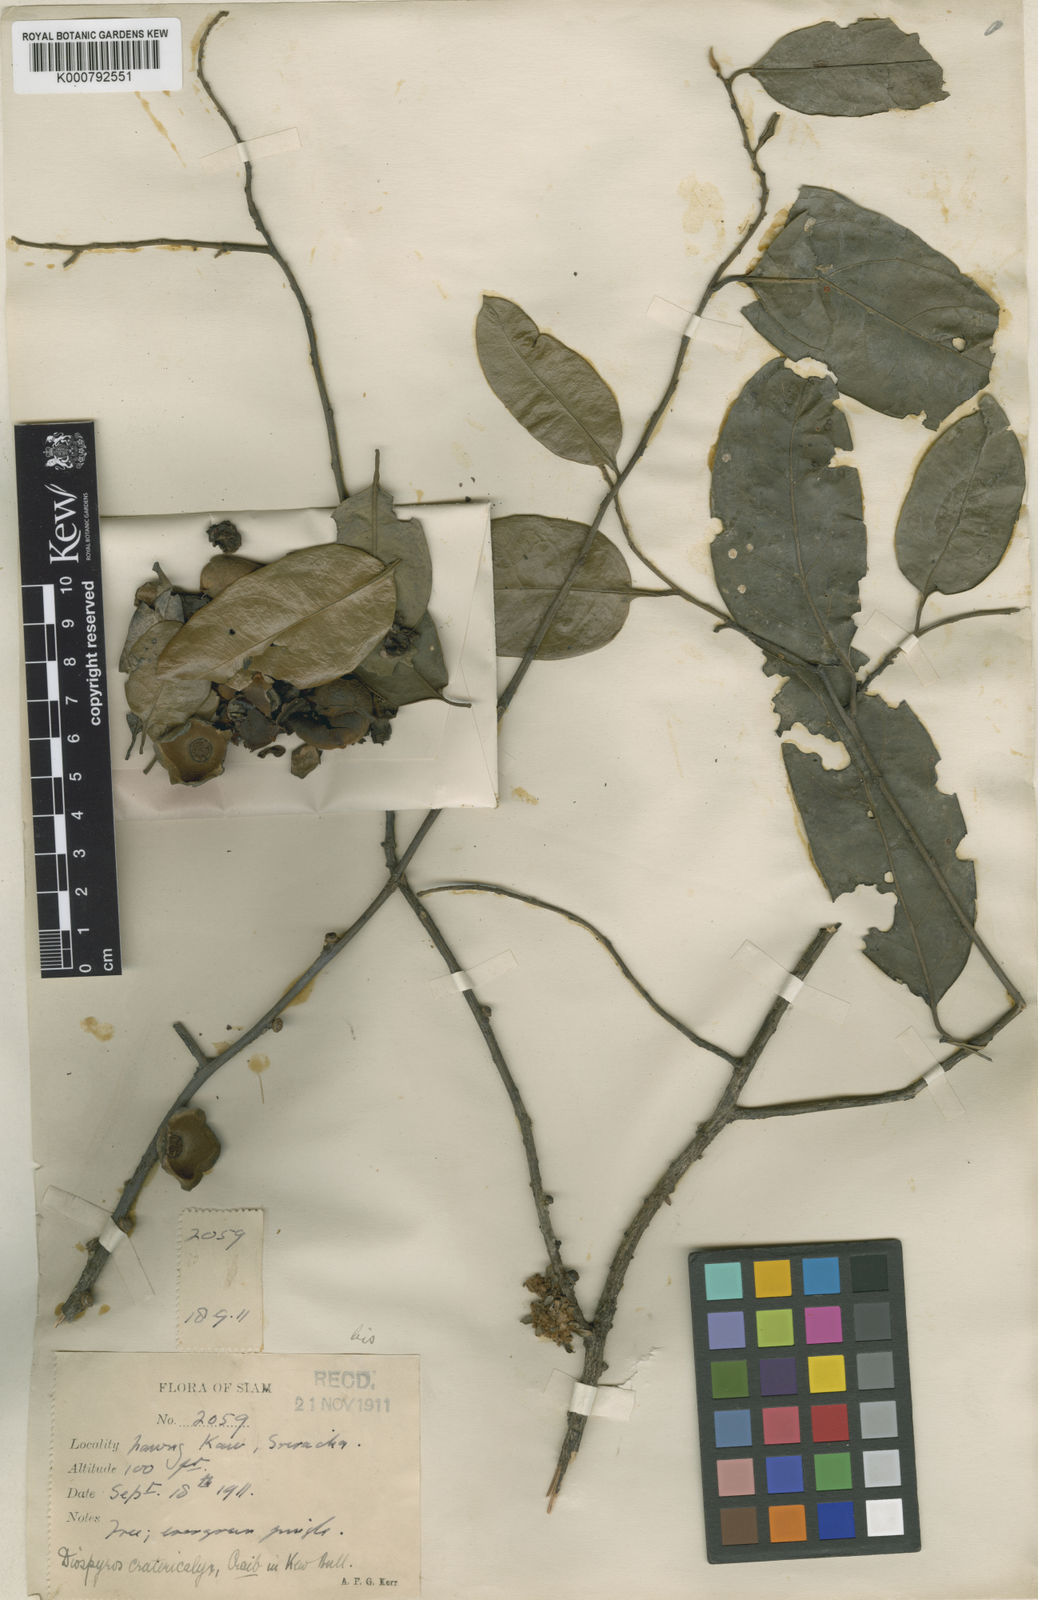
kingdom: Plantae
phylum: Tracheophyta
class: Magnoliopsida
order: Ericales
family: Ebenaceae
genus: Diospyros
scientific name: Diospyros virginiana
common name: Persimmon
